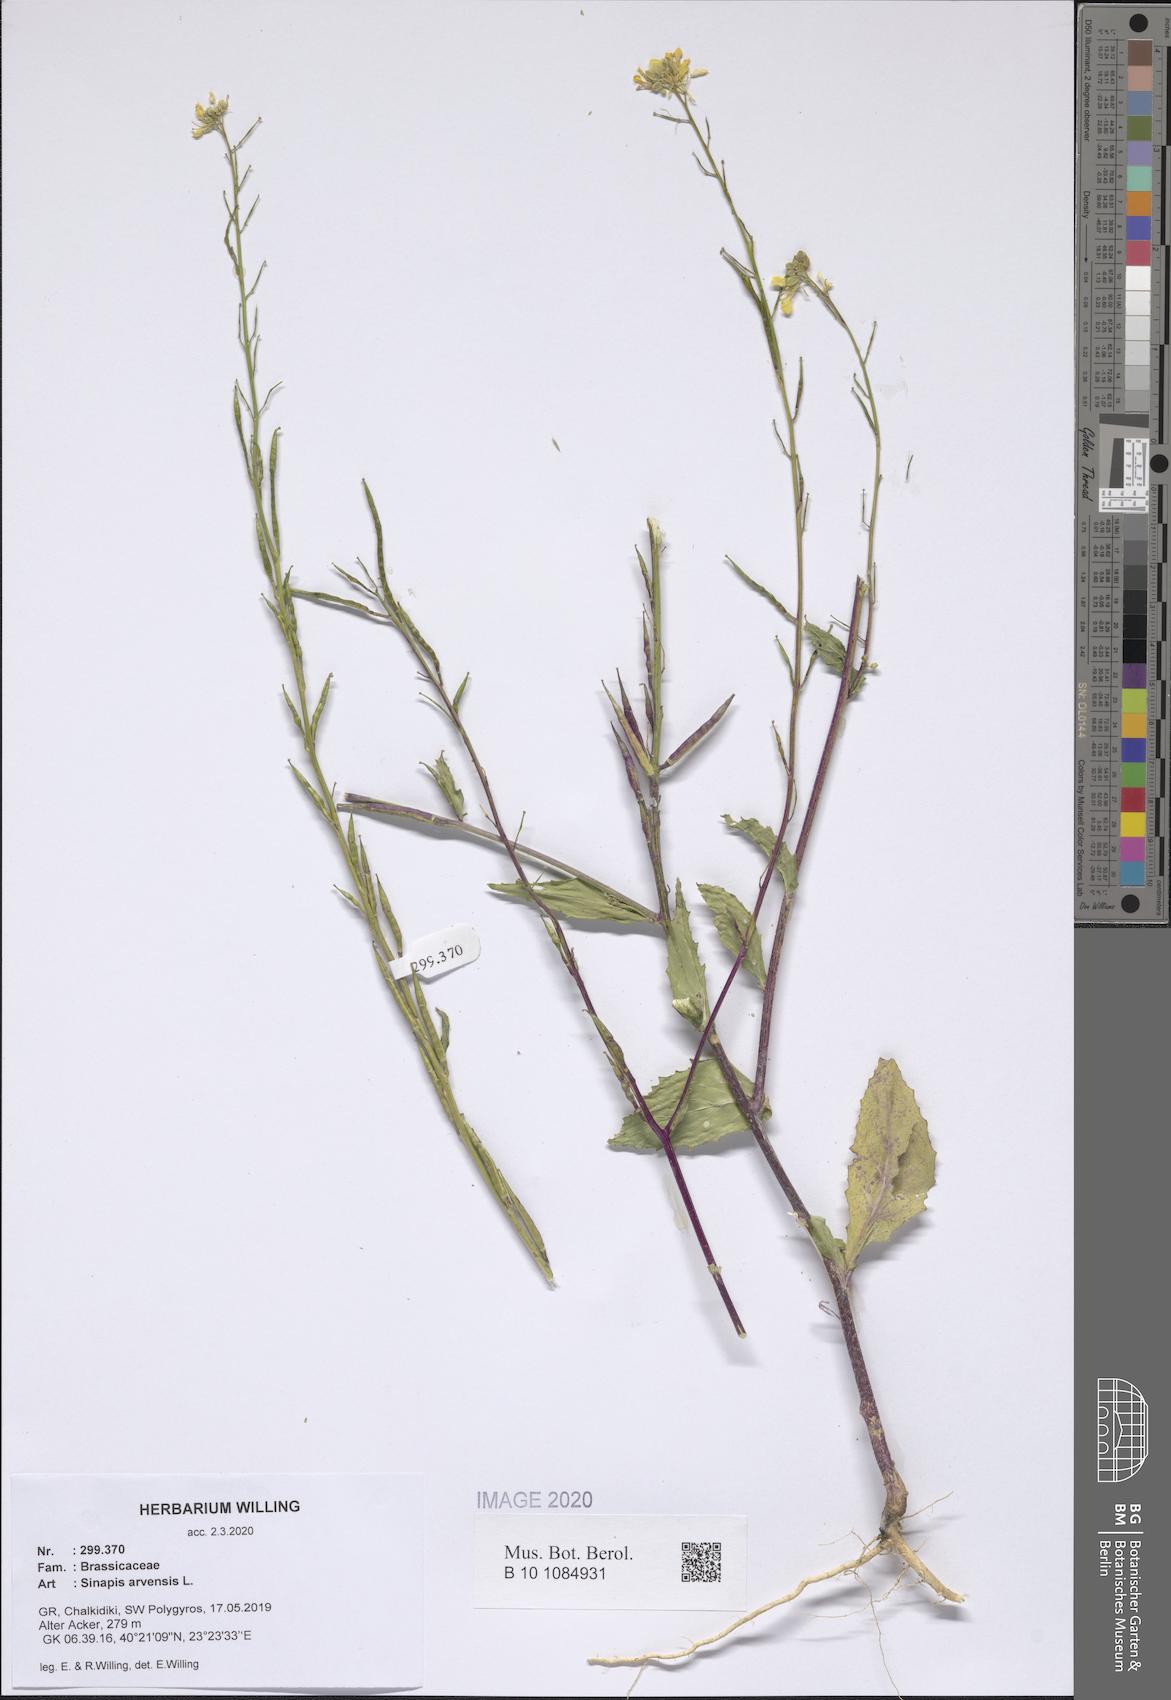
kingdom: Plantae
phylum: Tracheophyta
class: Magnoliopsida
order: Brassicales
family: Brassicaceae
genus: Sinapis
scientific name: Sinapis arvensis
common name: Charlock
